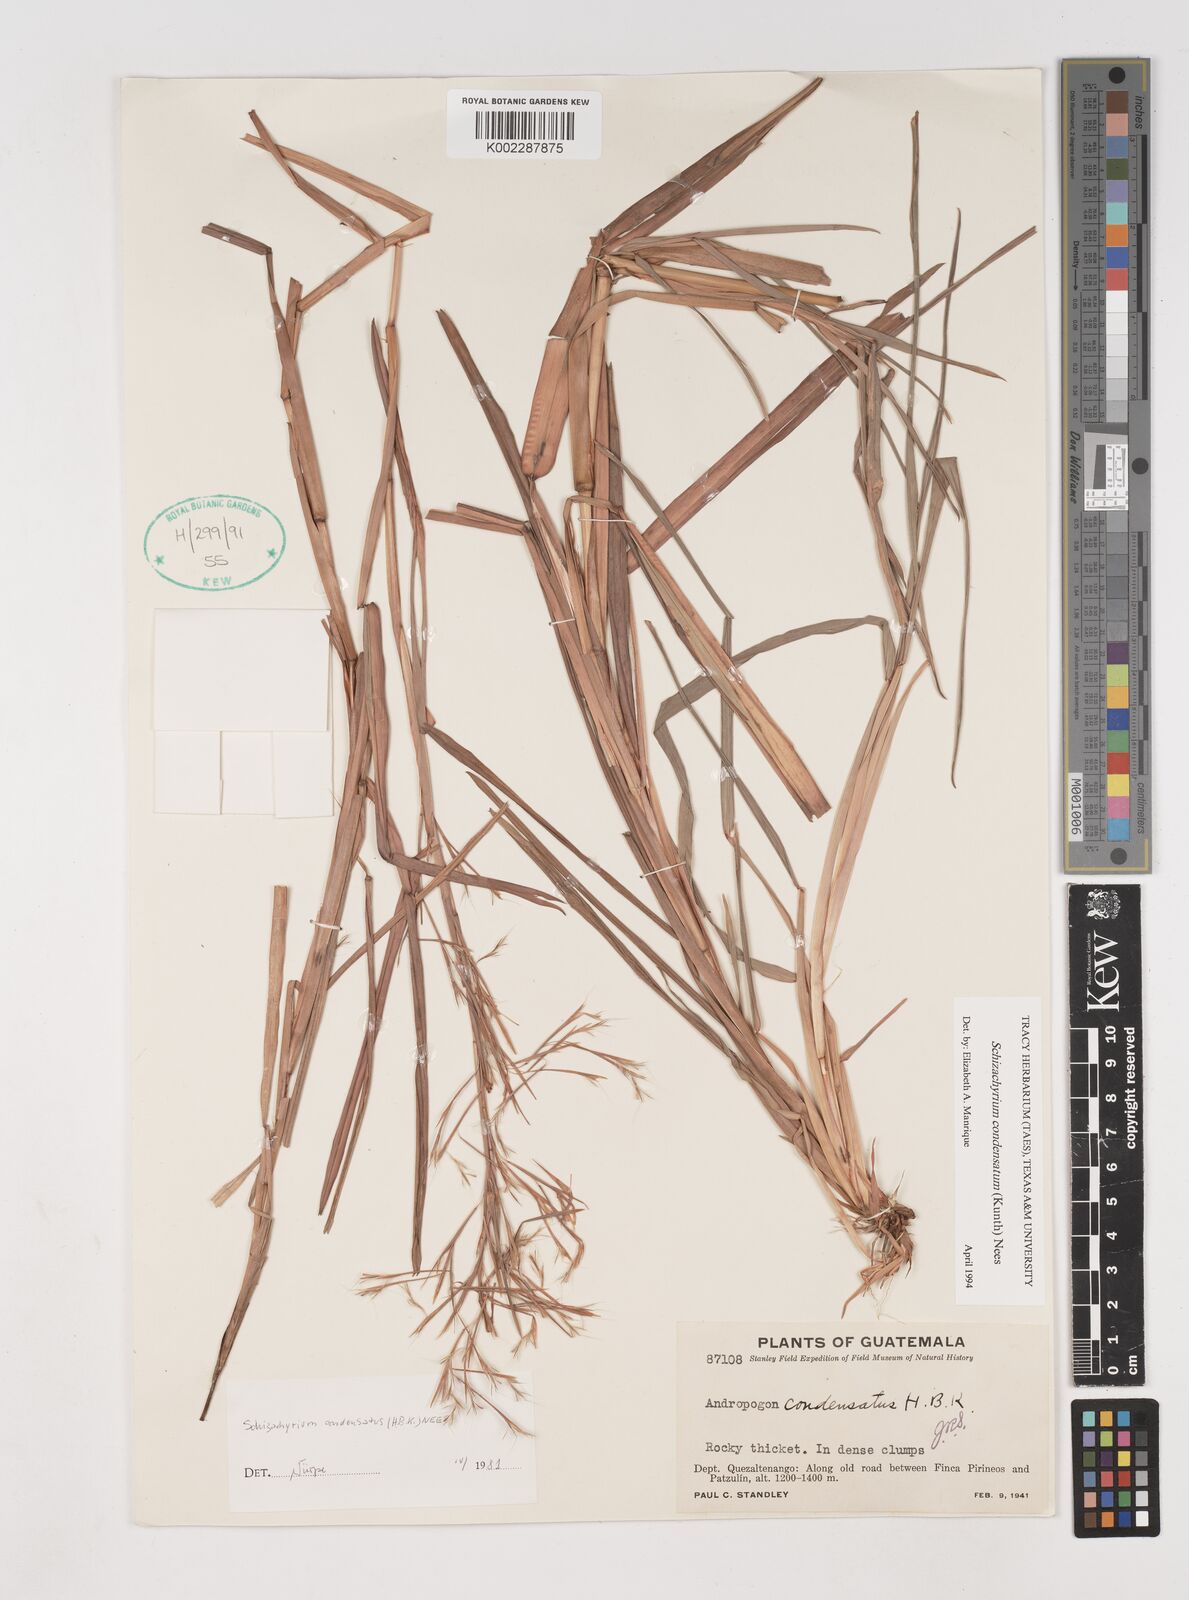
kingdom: Plantae
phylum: Tracheophyta
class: Liliopsida
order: Poales
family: Poaceae
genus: Schizachyrium
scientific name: Schizachyrium condensatum
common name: Bush beardgrass
